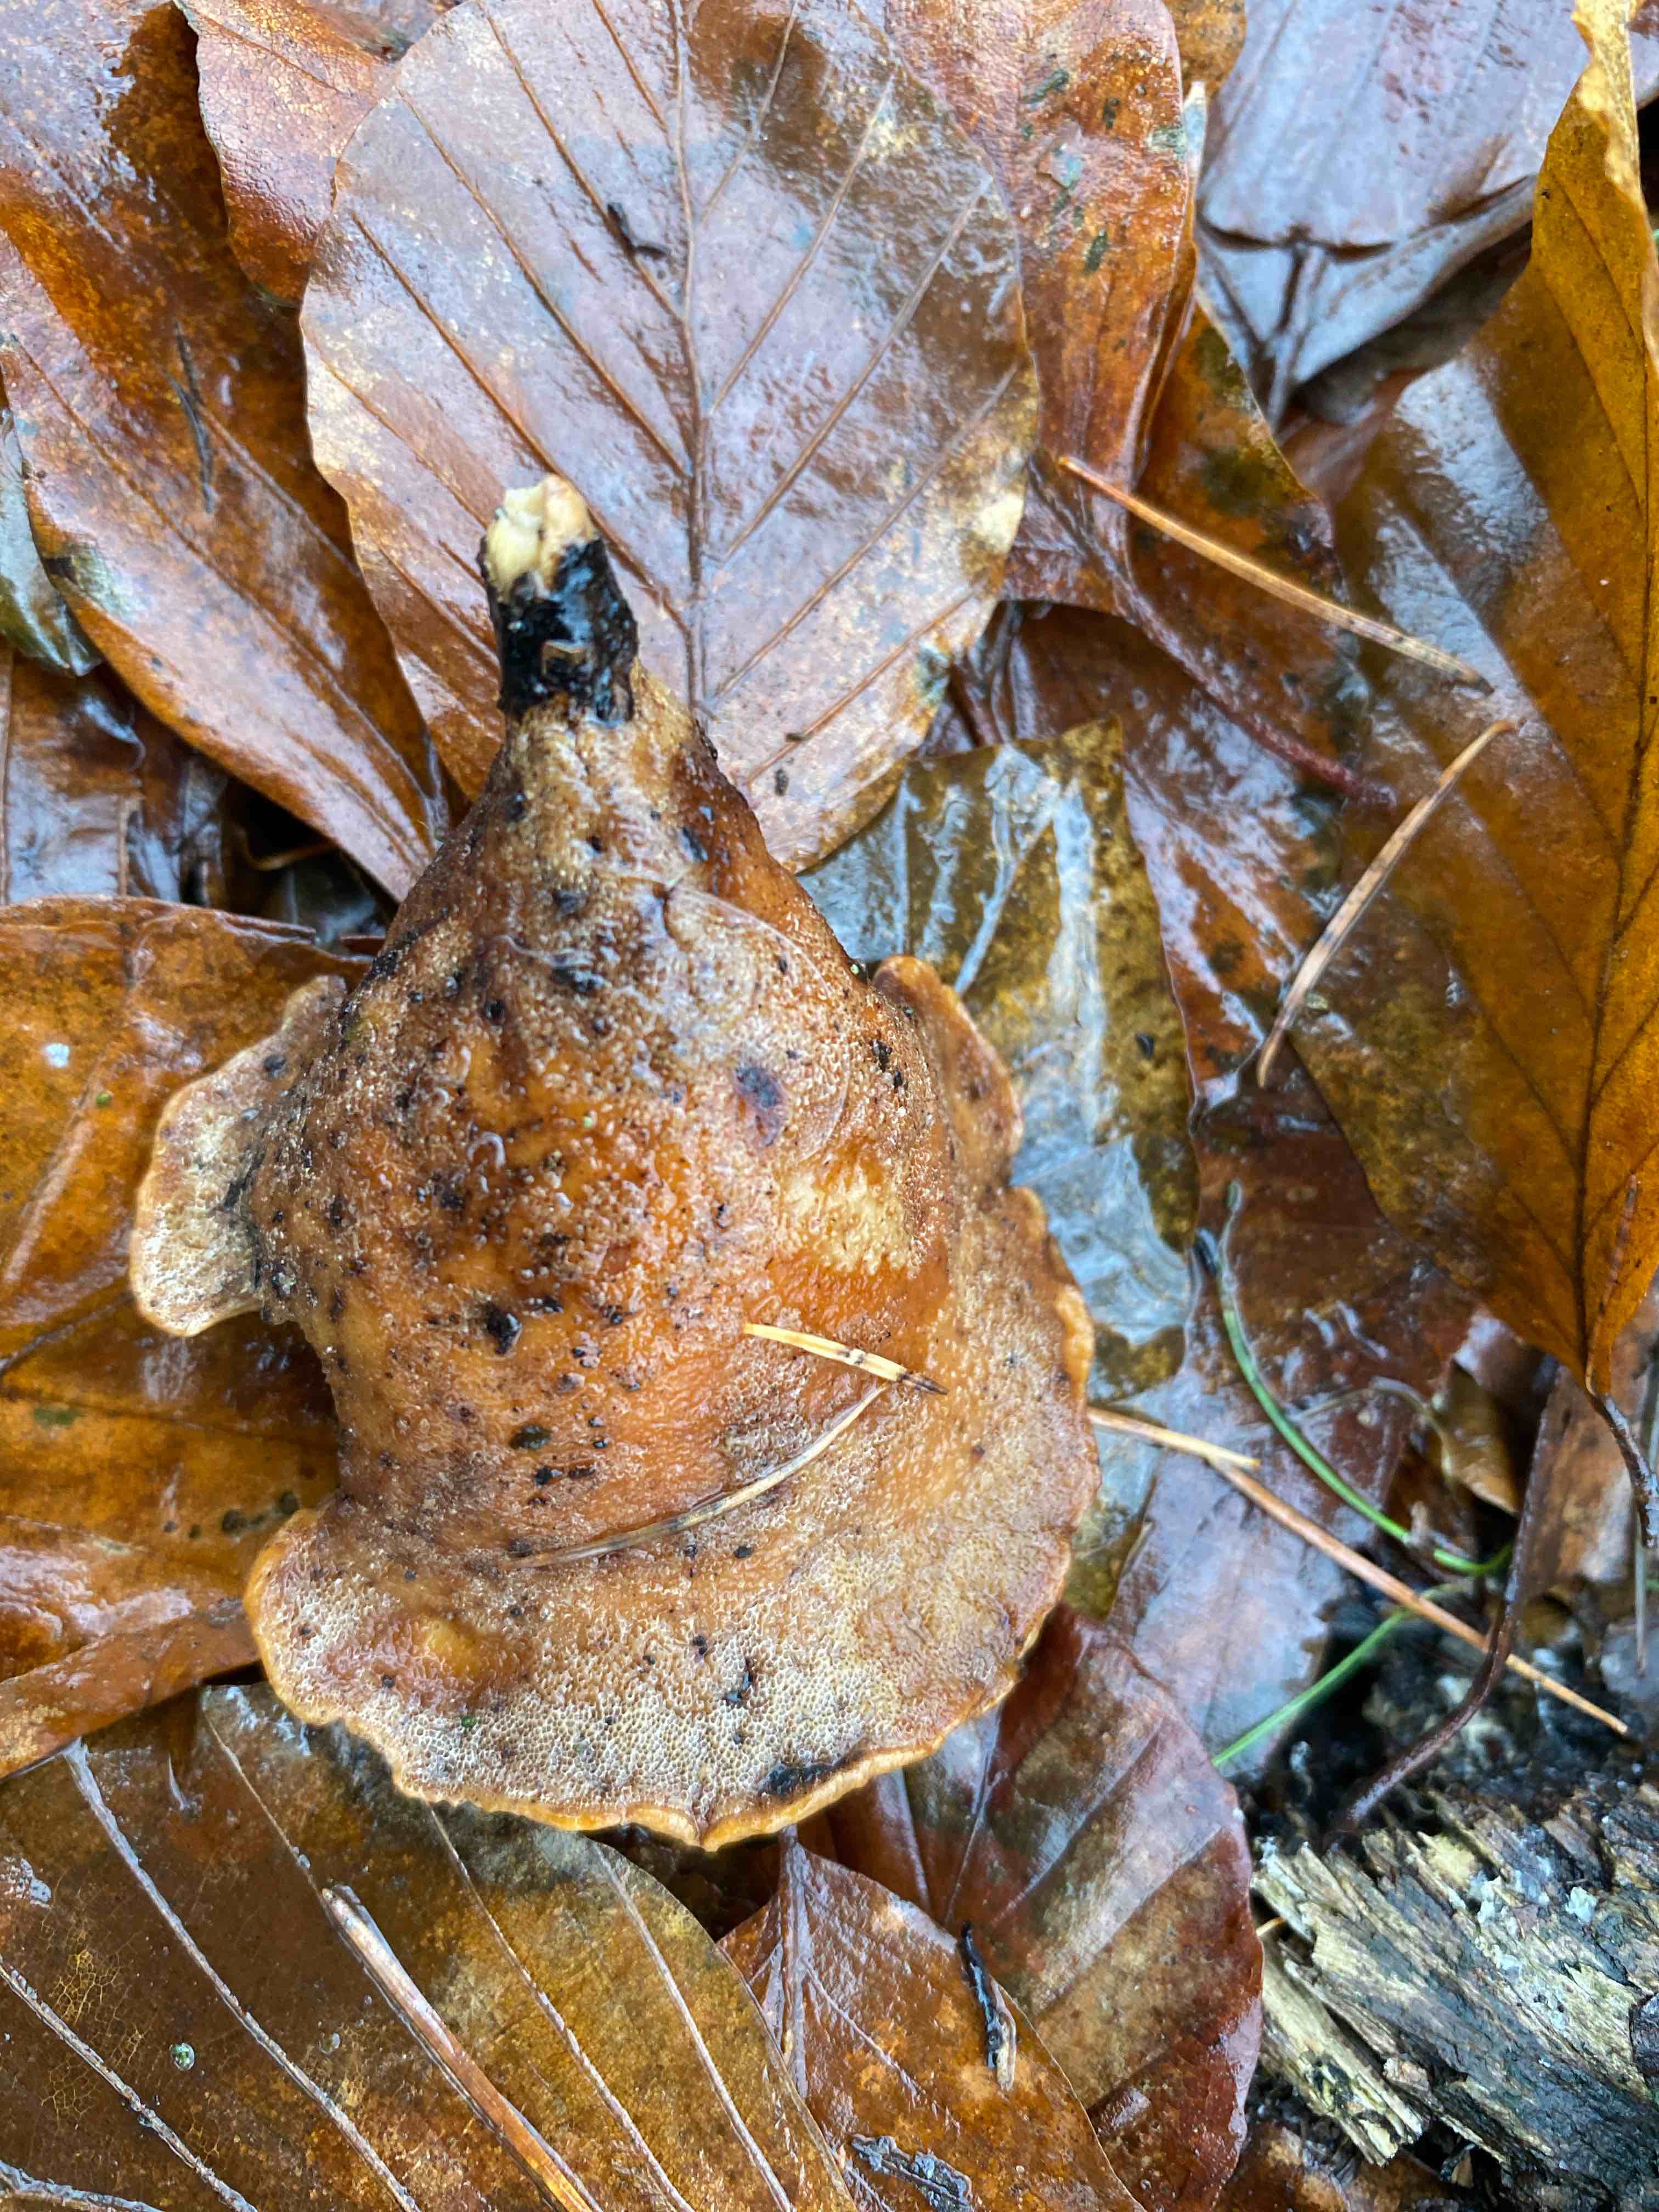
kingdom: Fungi
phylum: Basidiomycota
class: Agaricomycetes
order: Polyporales
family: Polyporaceae
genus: Cerioporus
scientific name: Cerioporus varius
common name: foranderlig stilkporesvamp
